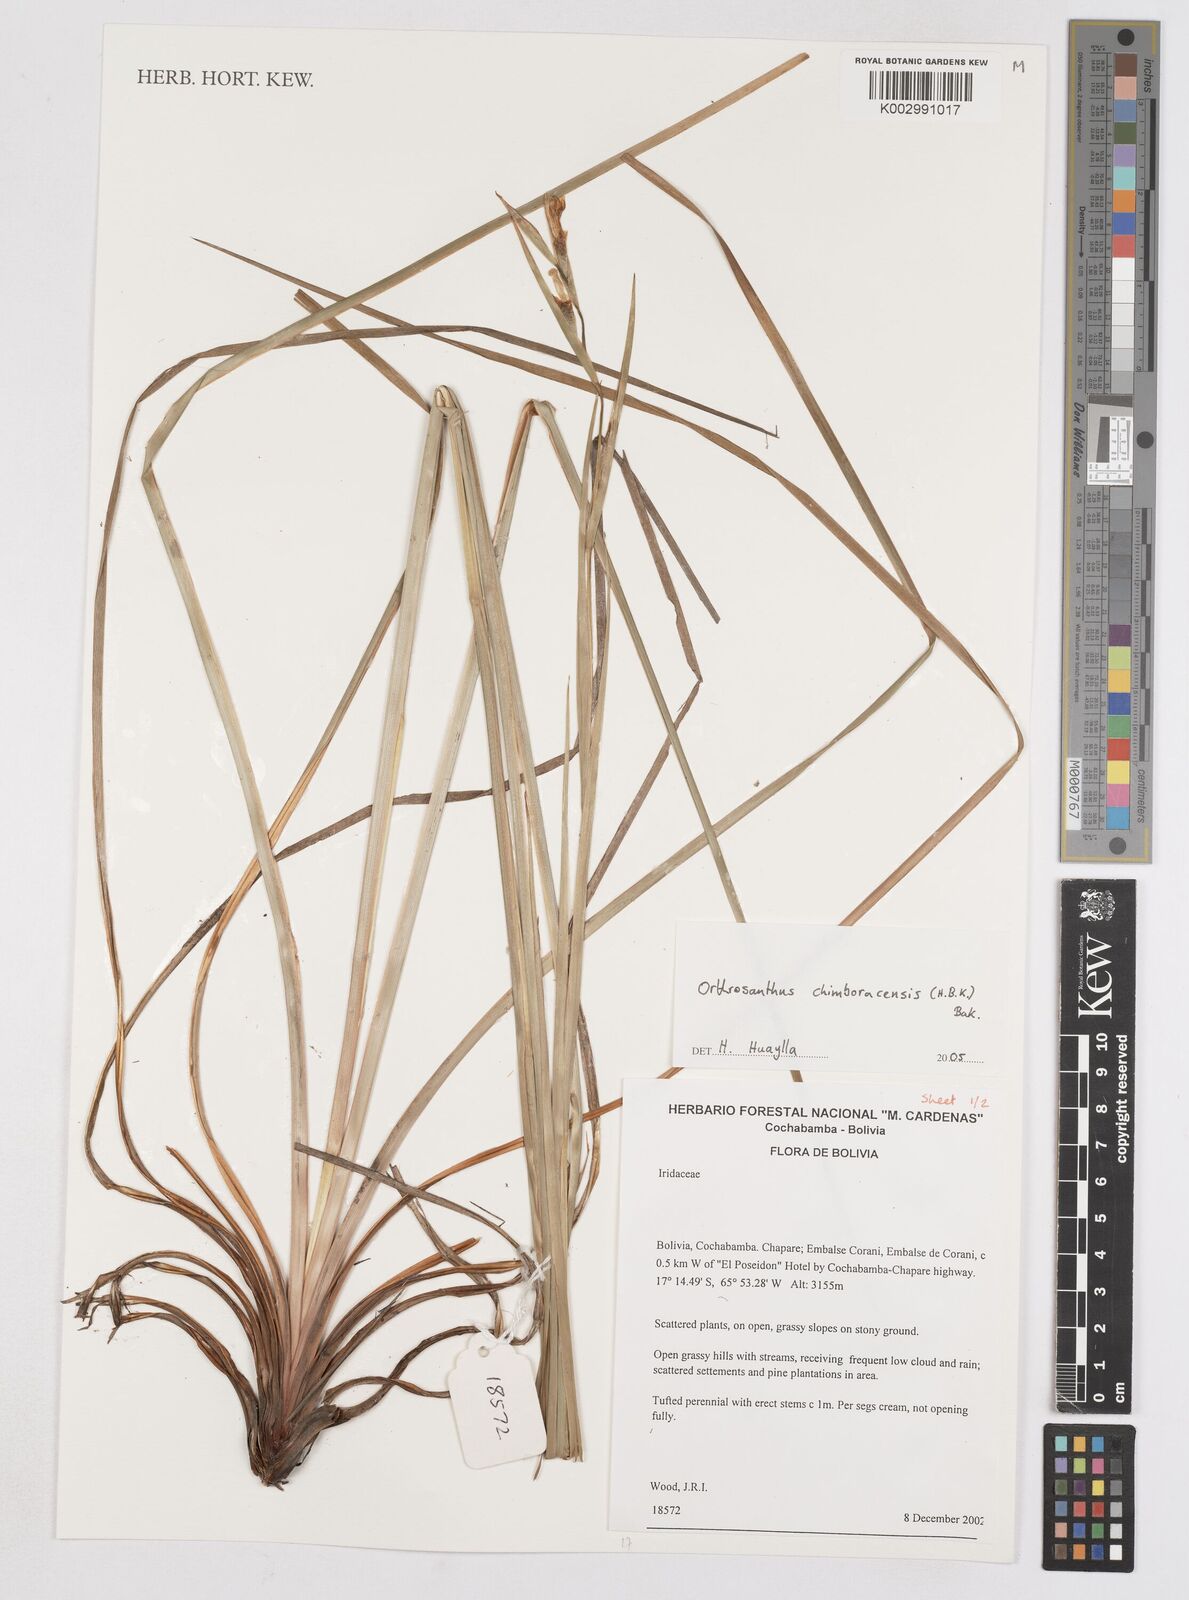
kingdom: Plantae
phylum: Tracheophyta
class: Liliopsida
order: Asparagales
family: Iridaceae
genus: Orthrosanthus
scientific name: Orthrosanthus chimboracensis
